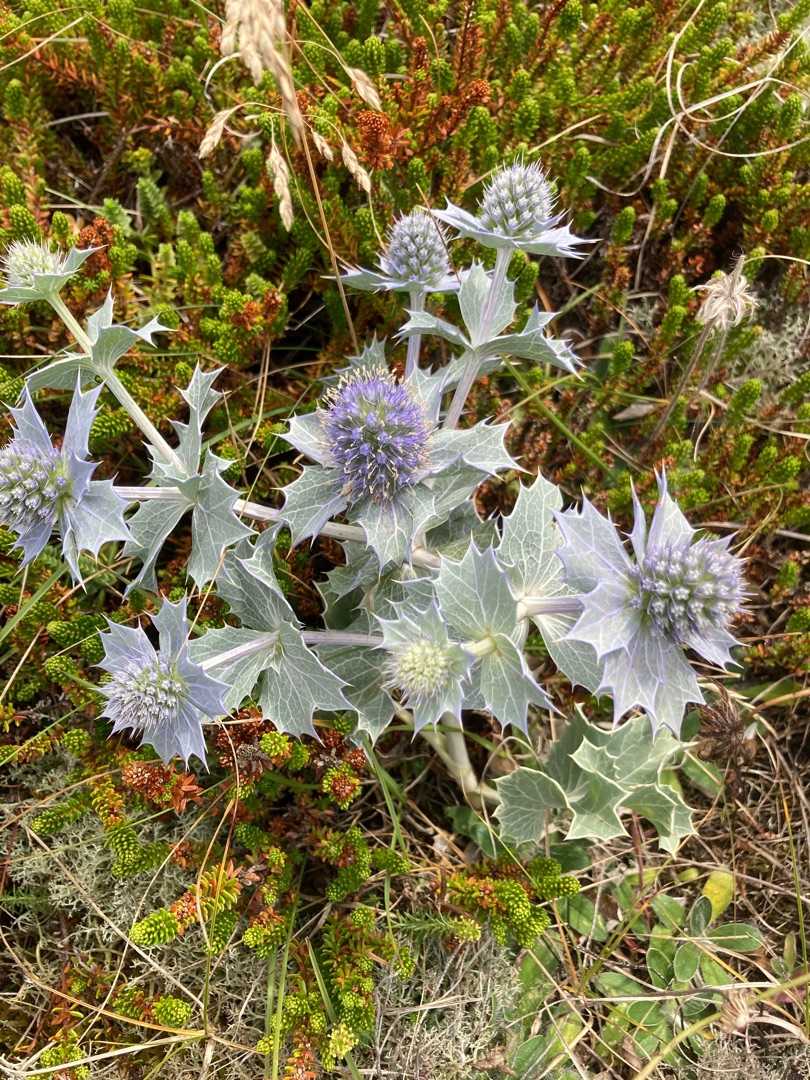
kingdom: Plantae
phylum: Tracheophyta
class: Magnoliopsida
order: Apiales
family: Apiaceae
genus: Eryngium
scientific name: Eryngium maritimum
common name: Strand-mandstro
